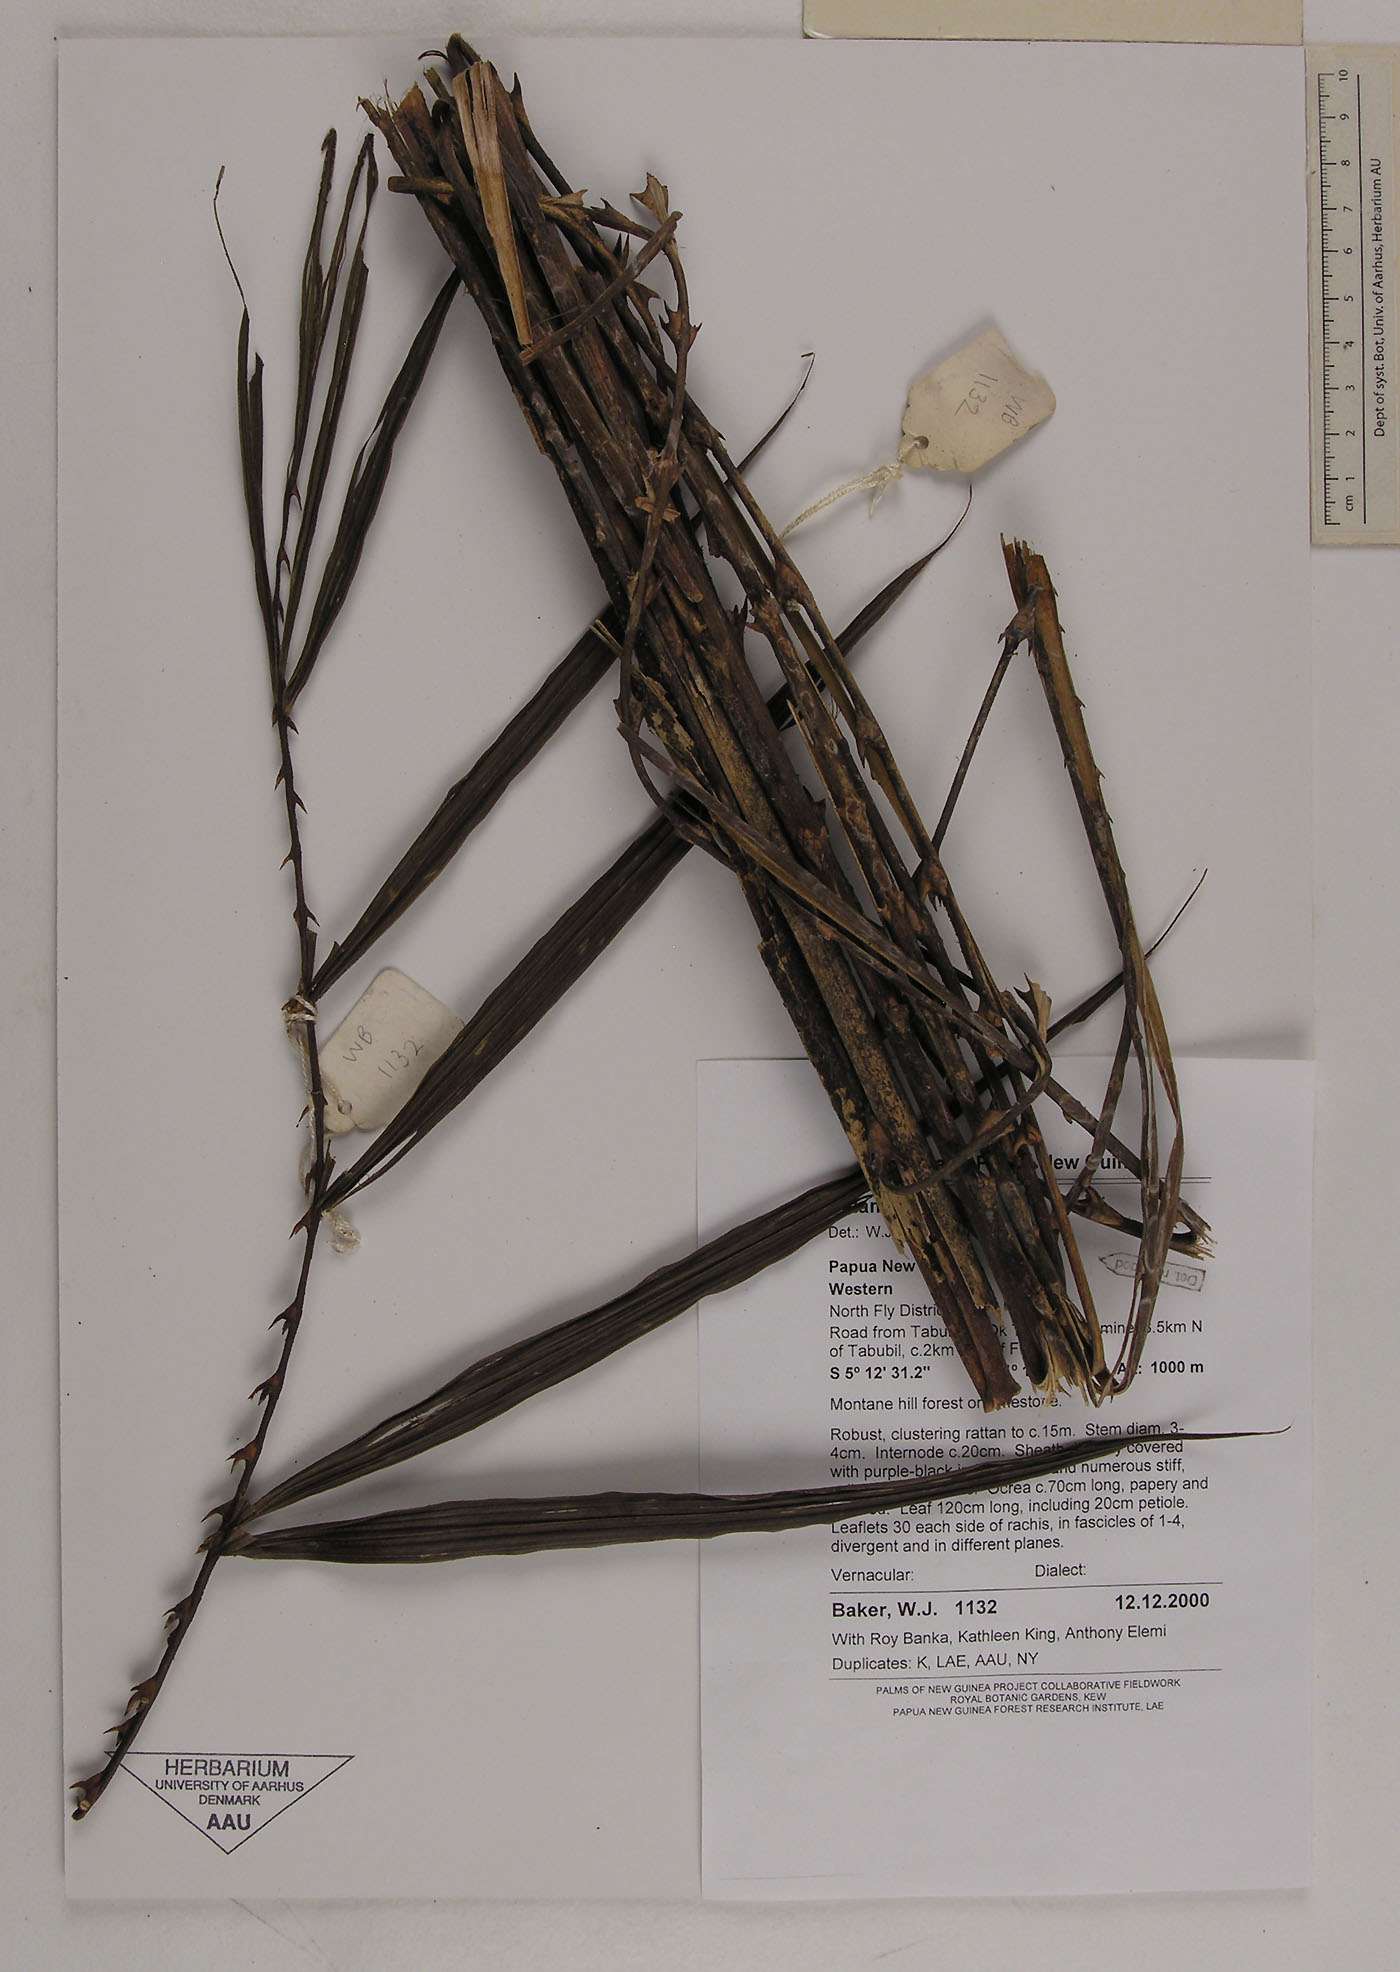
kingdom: Plantae
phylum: Tracheophyta
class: Liliopsida
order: Arecales
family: Arecaceae
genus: Calamus
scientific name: Calamus
